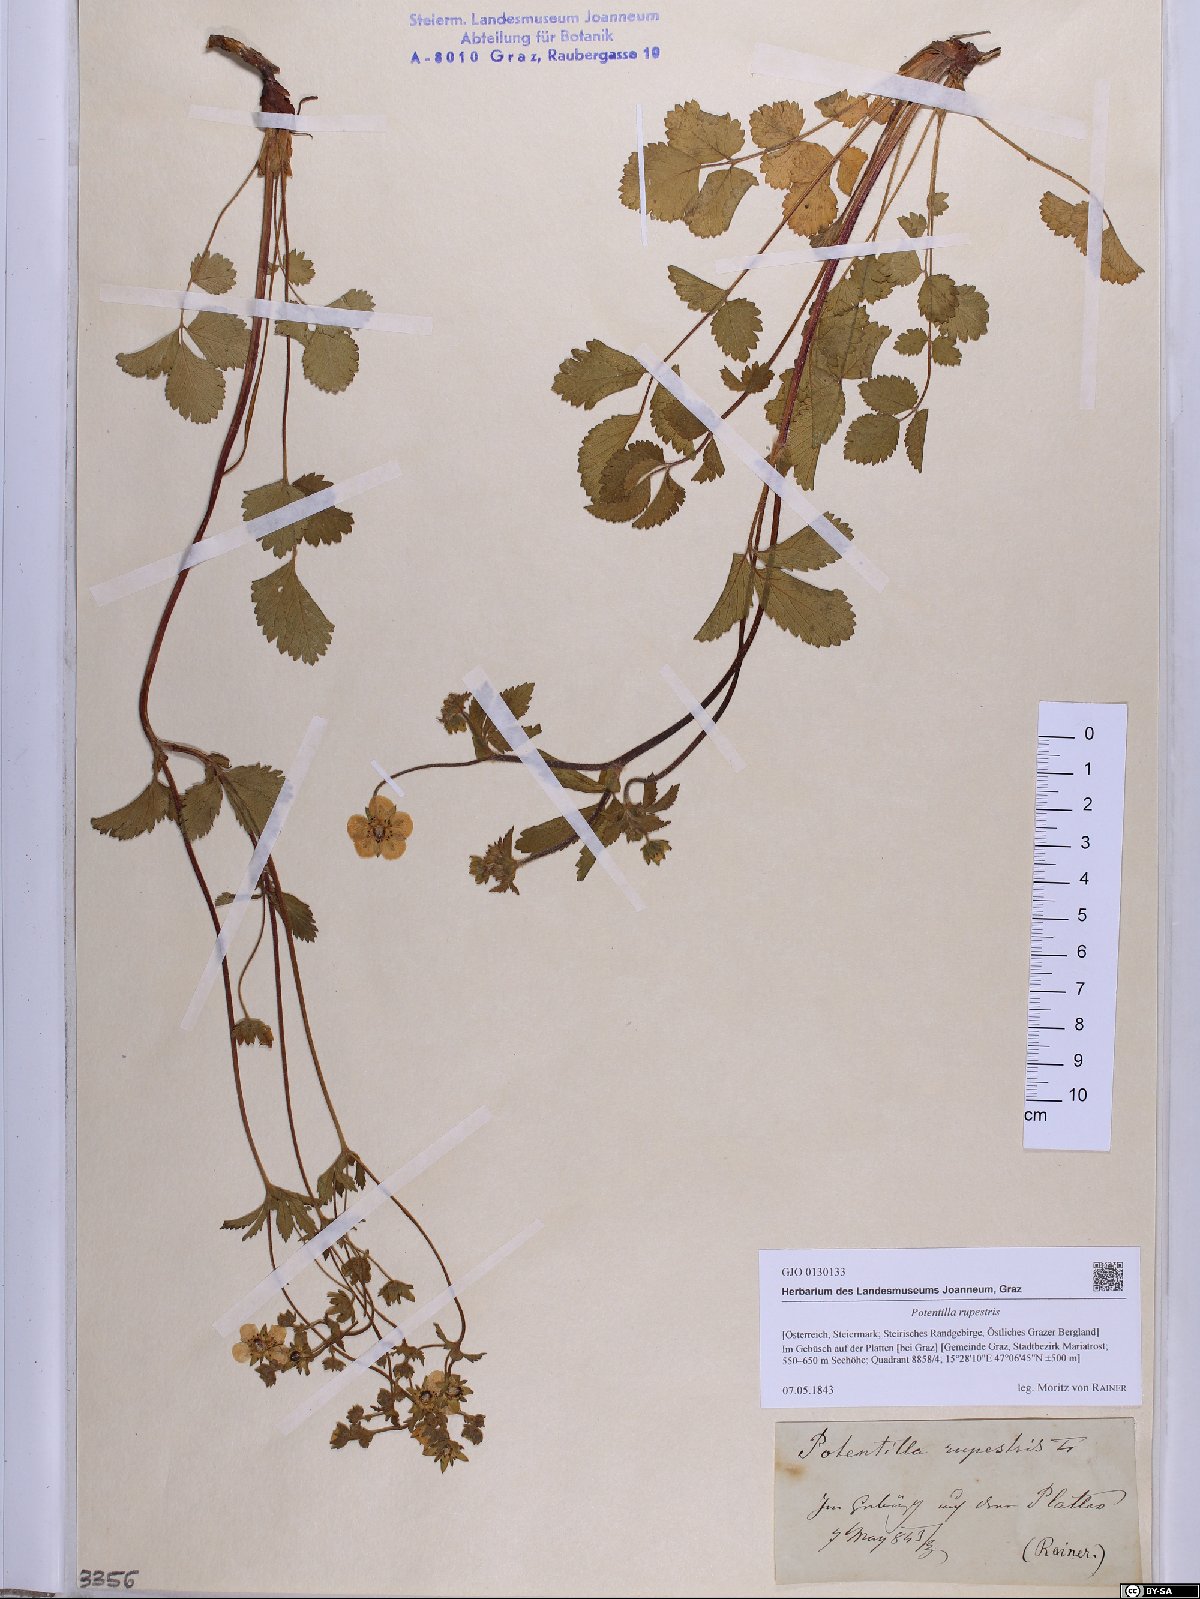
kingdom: Plantae
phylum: Tracheophyta
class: Magnoliopsida
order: Rosales
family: Rosaceae
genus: Drymocallis
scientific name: Drymocallis rupestris
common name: Rock cinquefoil
